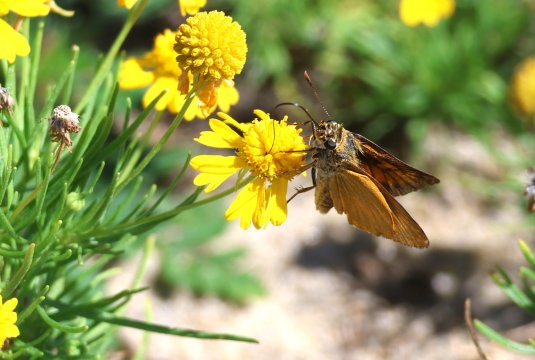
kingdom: Animalia
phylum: Arthropoda
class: Insecta
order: Lepidoptera
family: Hesperiidae
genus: Atrytone
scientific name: Atrytone delaware
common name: Delaware Skipper
